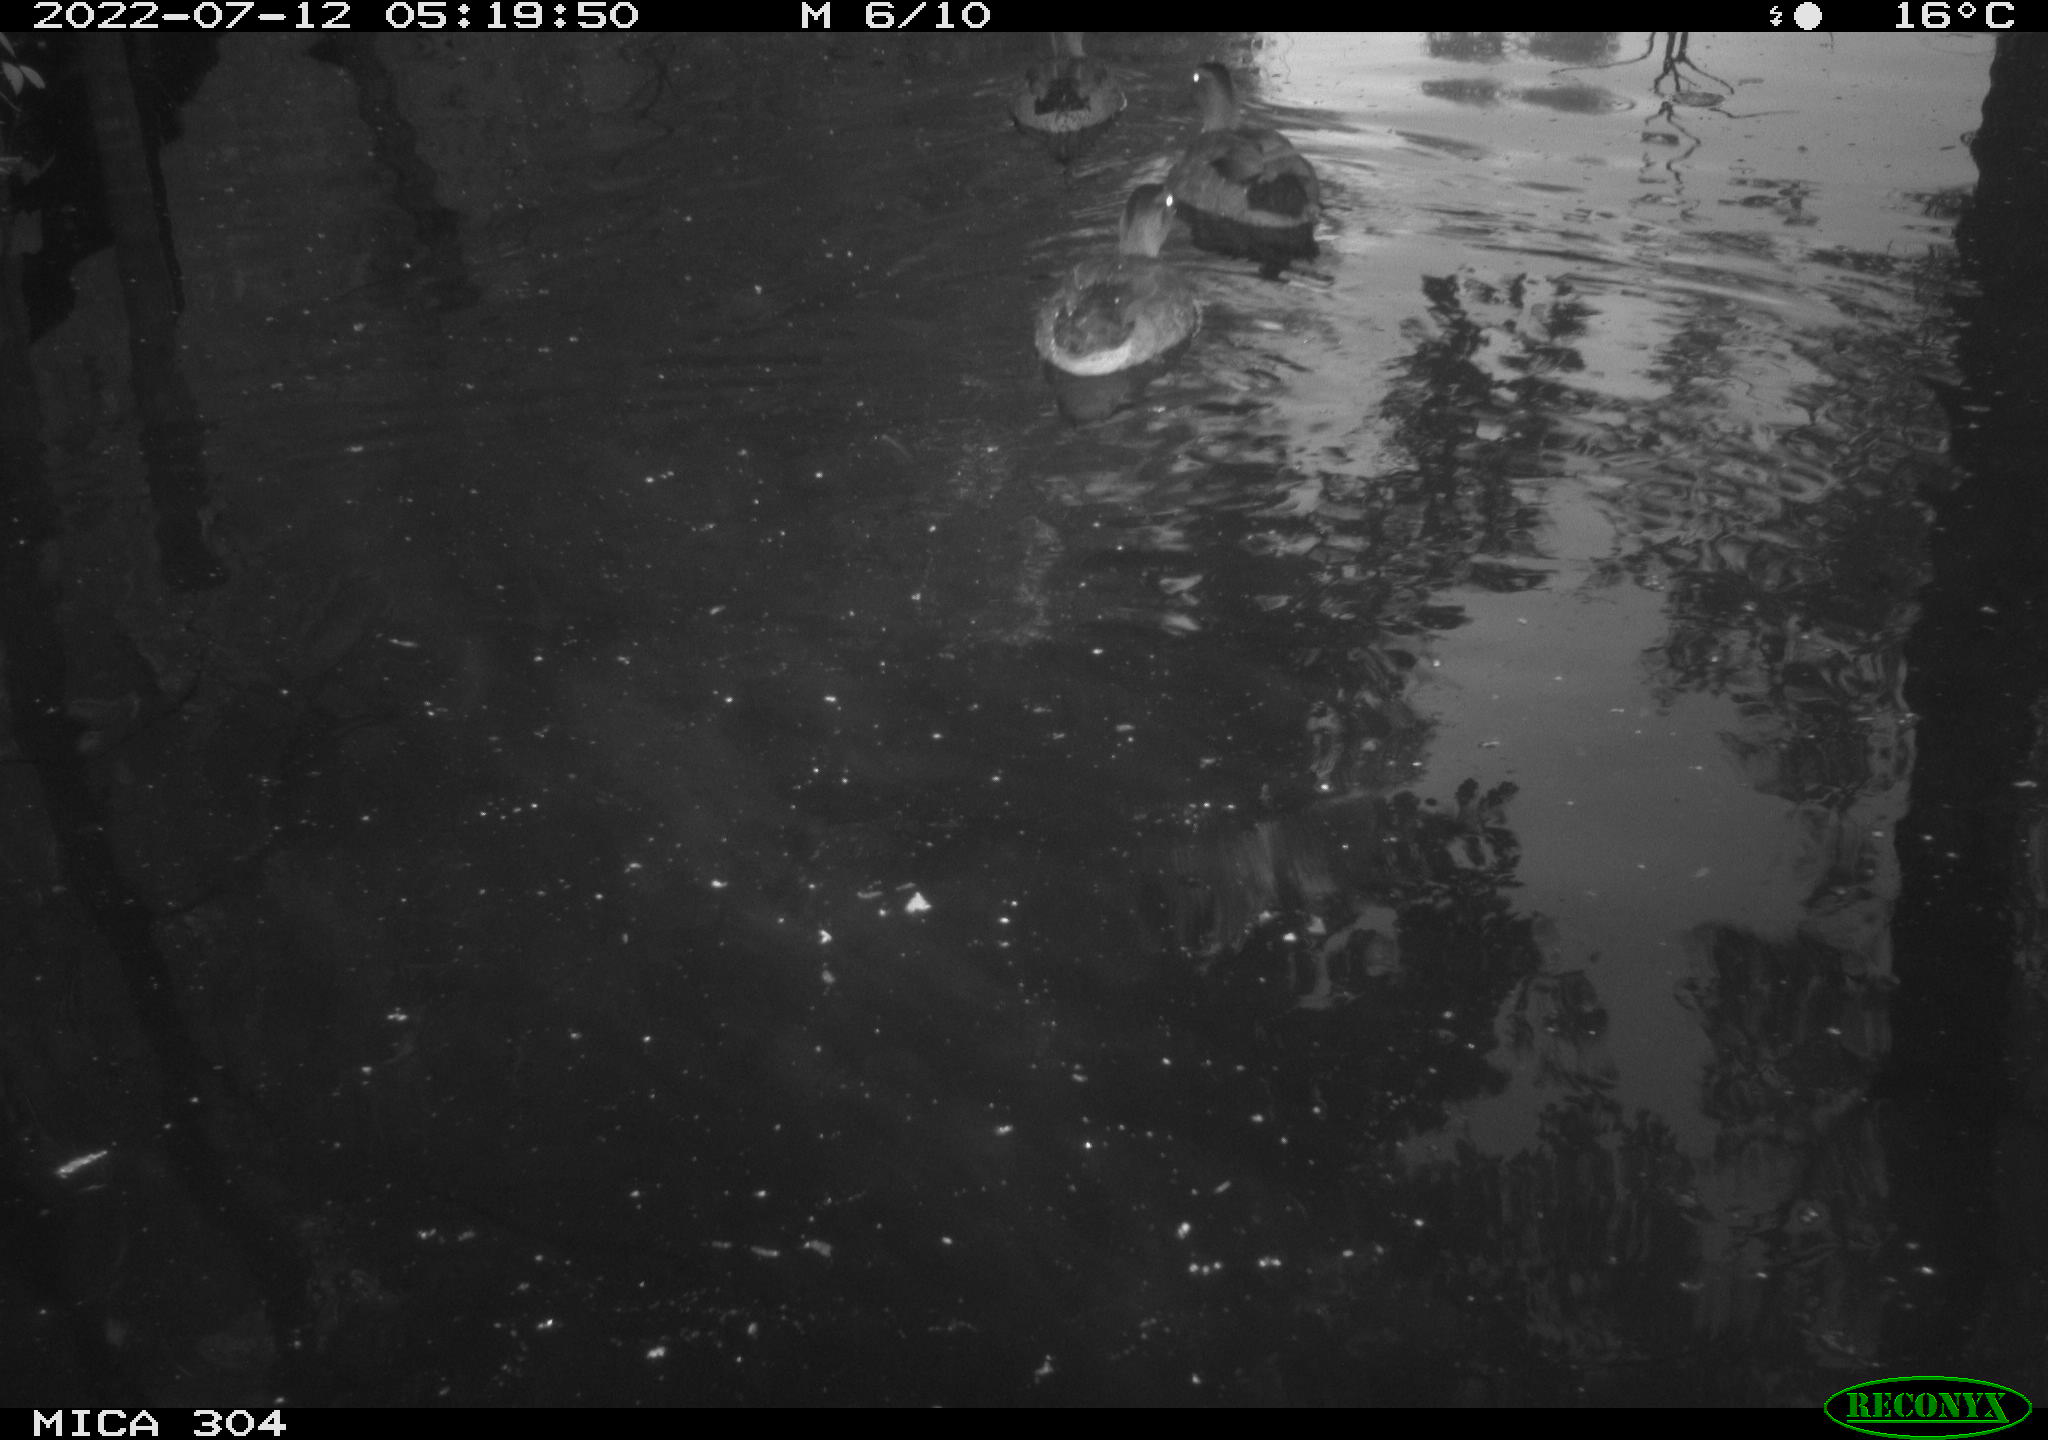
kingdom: Animalia
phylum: Chordata
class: Aves
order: Anseriformes
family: Anatidae
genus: Anas
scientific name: Anas platyrhynchos
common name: Mallard
